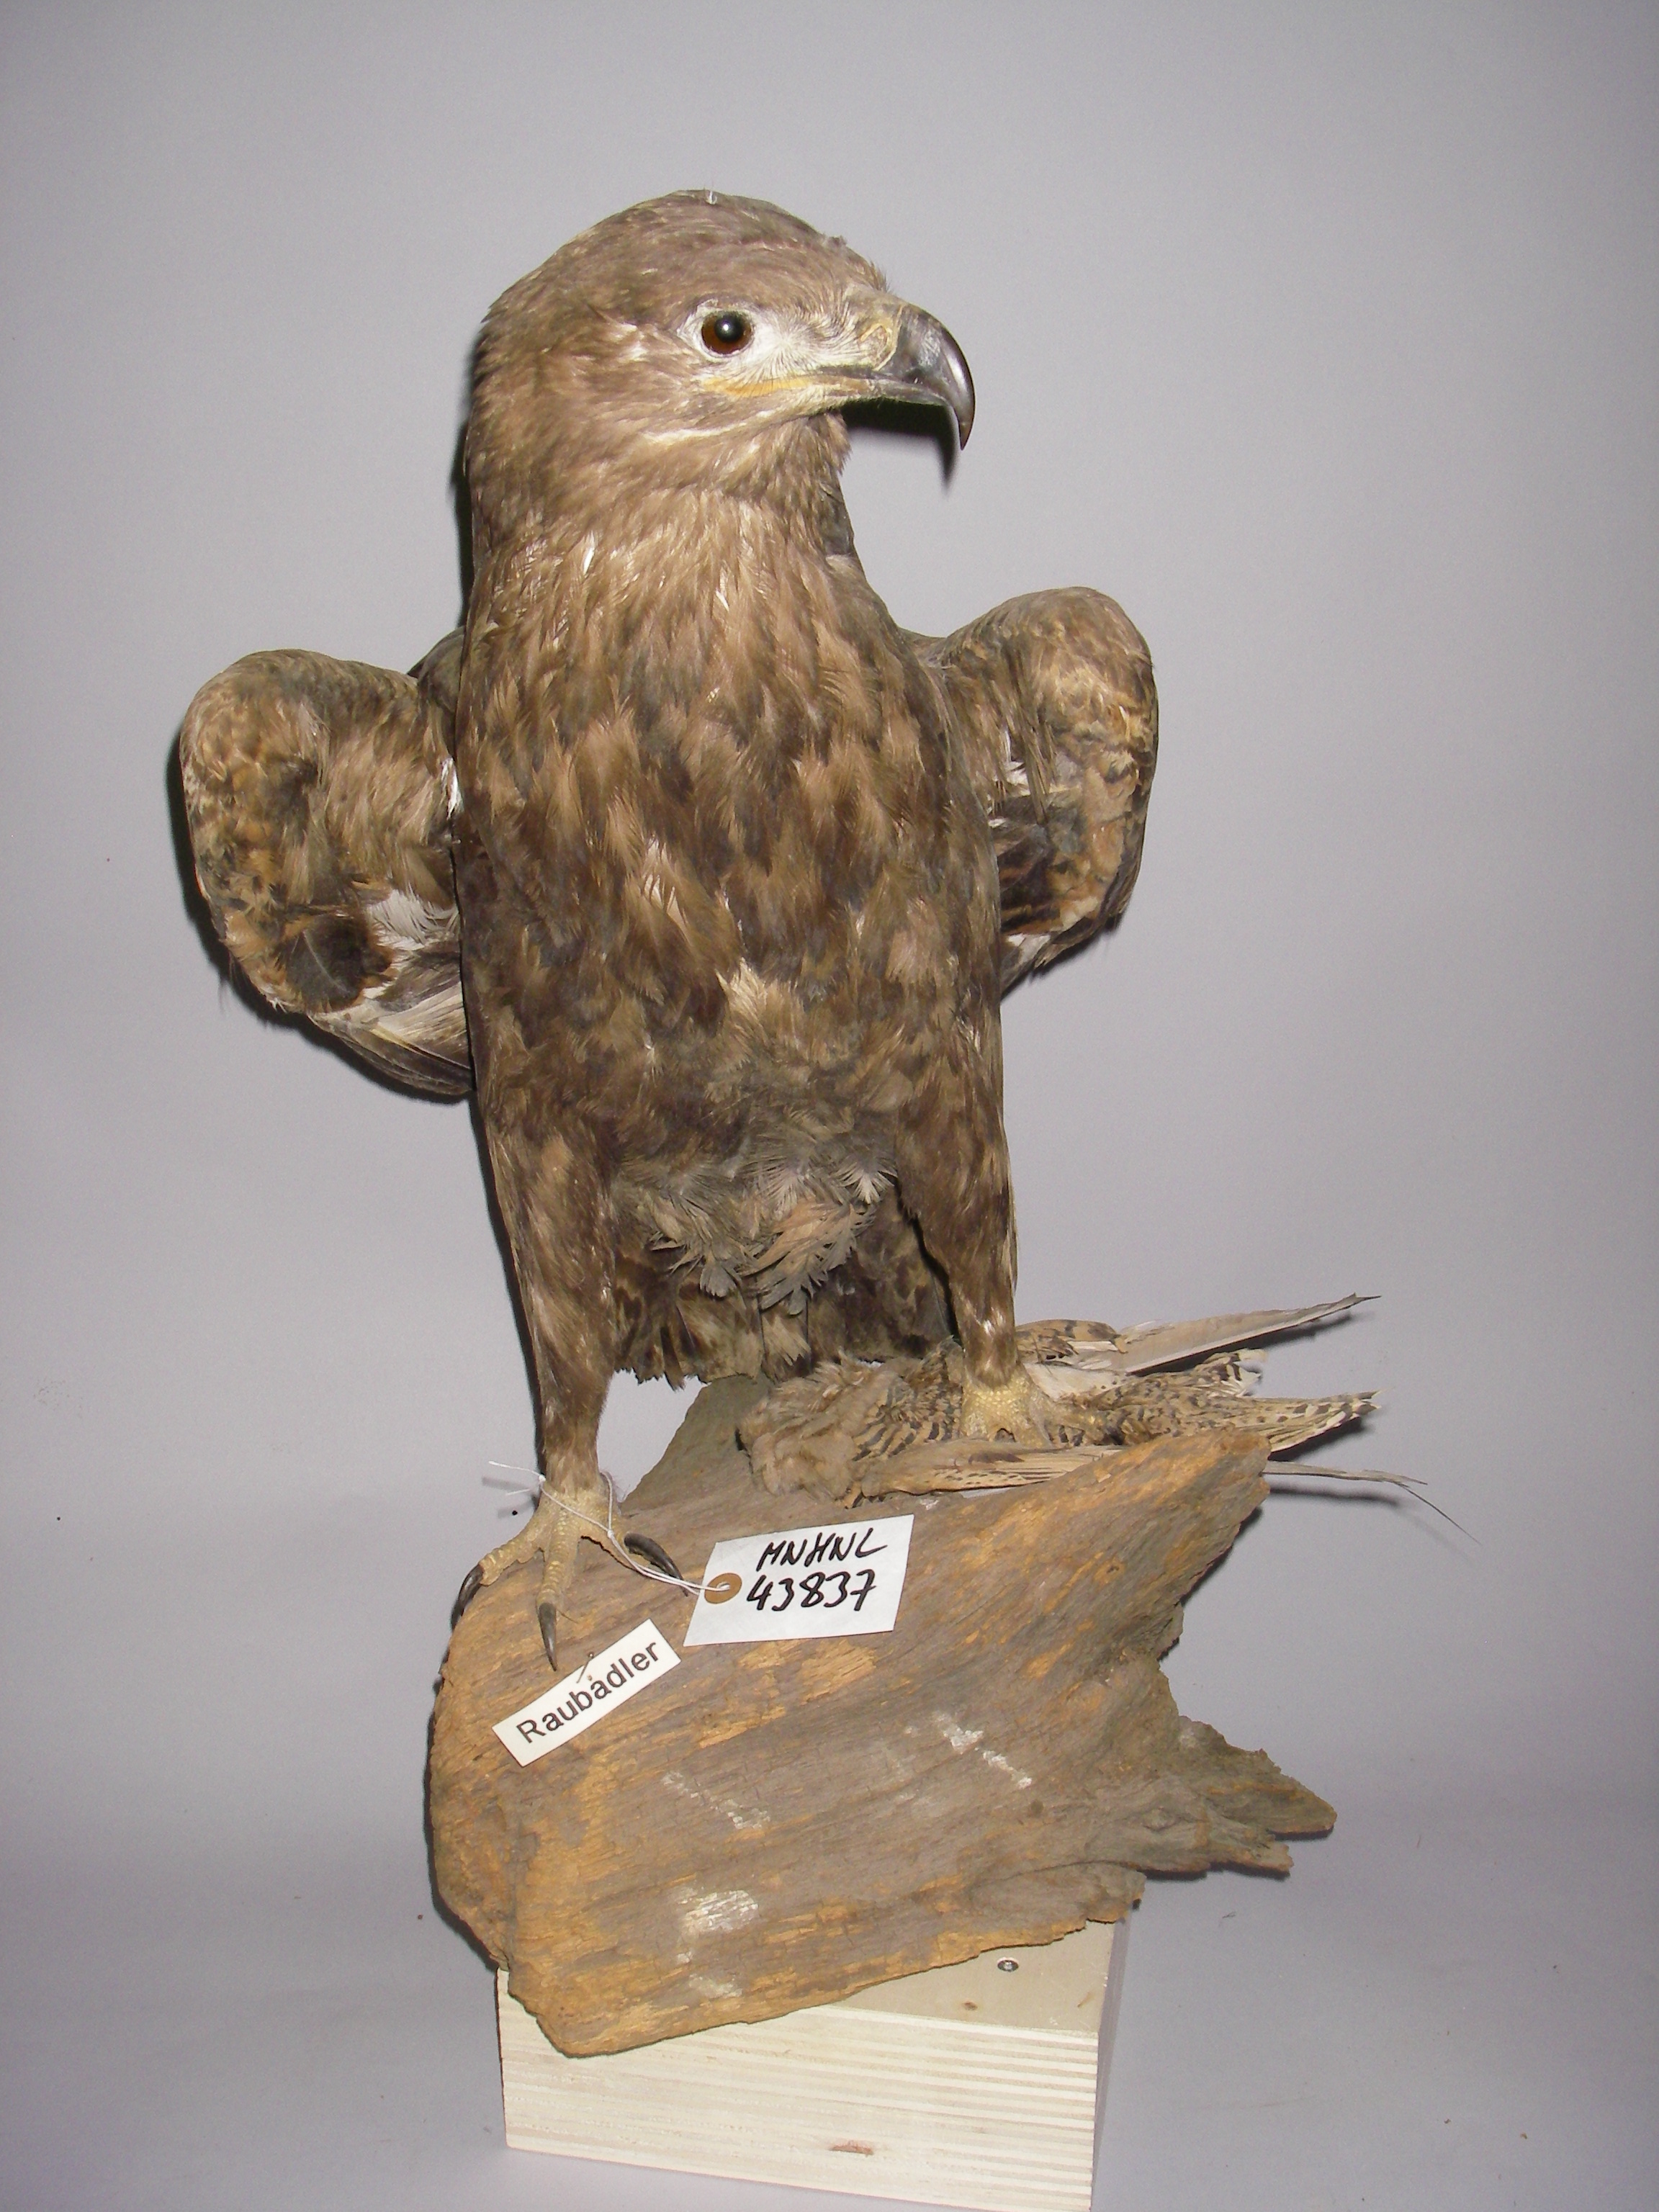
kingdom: Animalia
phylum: Chordata
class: Aves
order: Accipitriformes
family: Accipitridae
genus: Aquila
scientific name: Aquila rapax
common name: Tawny eagle
